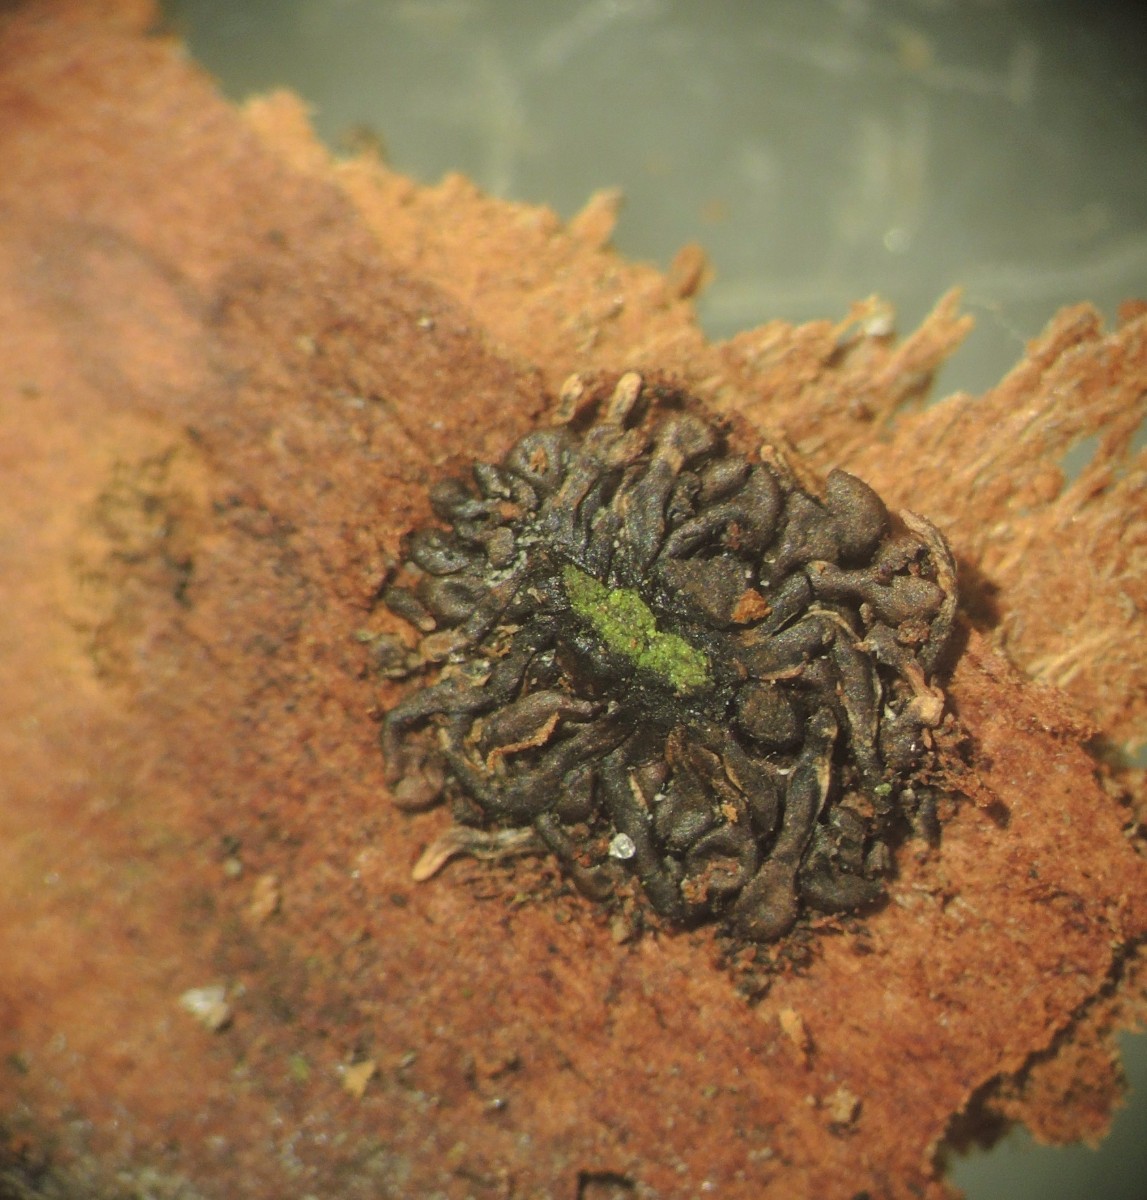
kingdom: Fungi
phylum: Ascomycota
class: Sordariomycetes
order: Calosphaeriales
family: Calosphaeriaceae
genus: Calosphaeria
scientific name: Calosphaeria pulchella
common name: smuk slyngkerne
